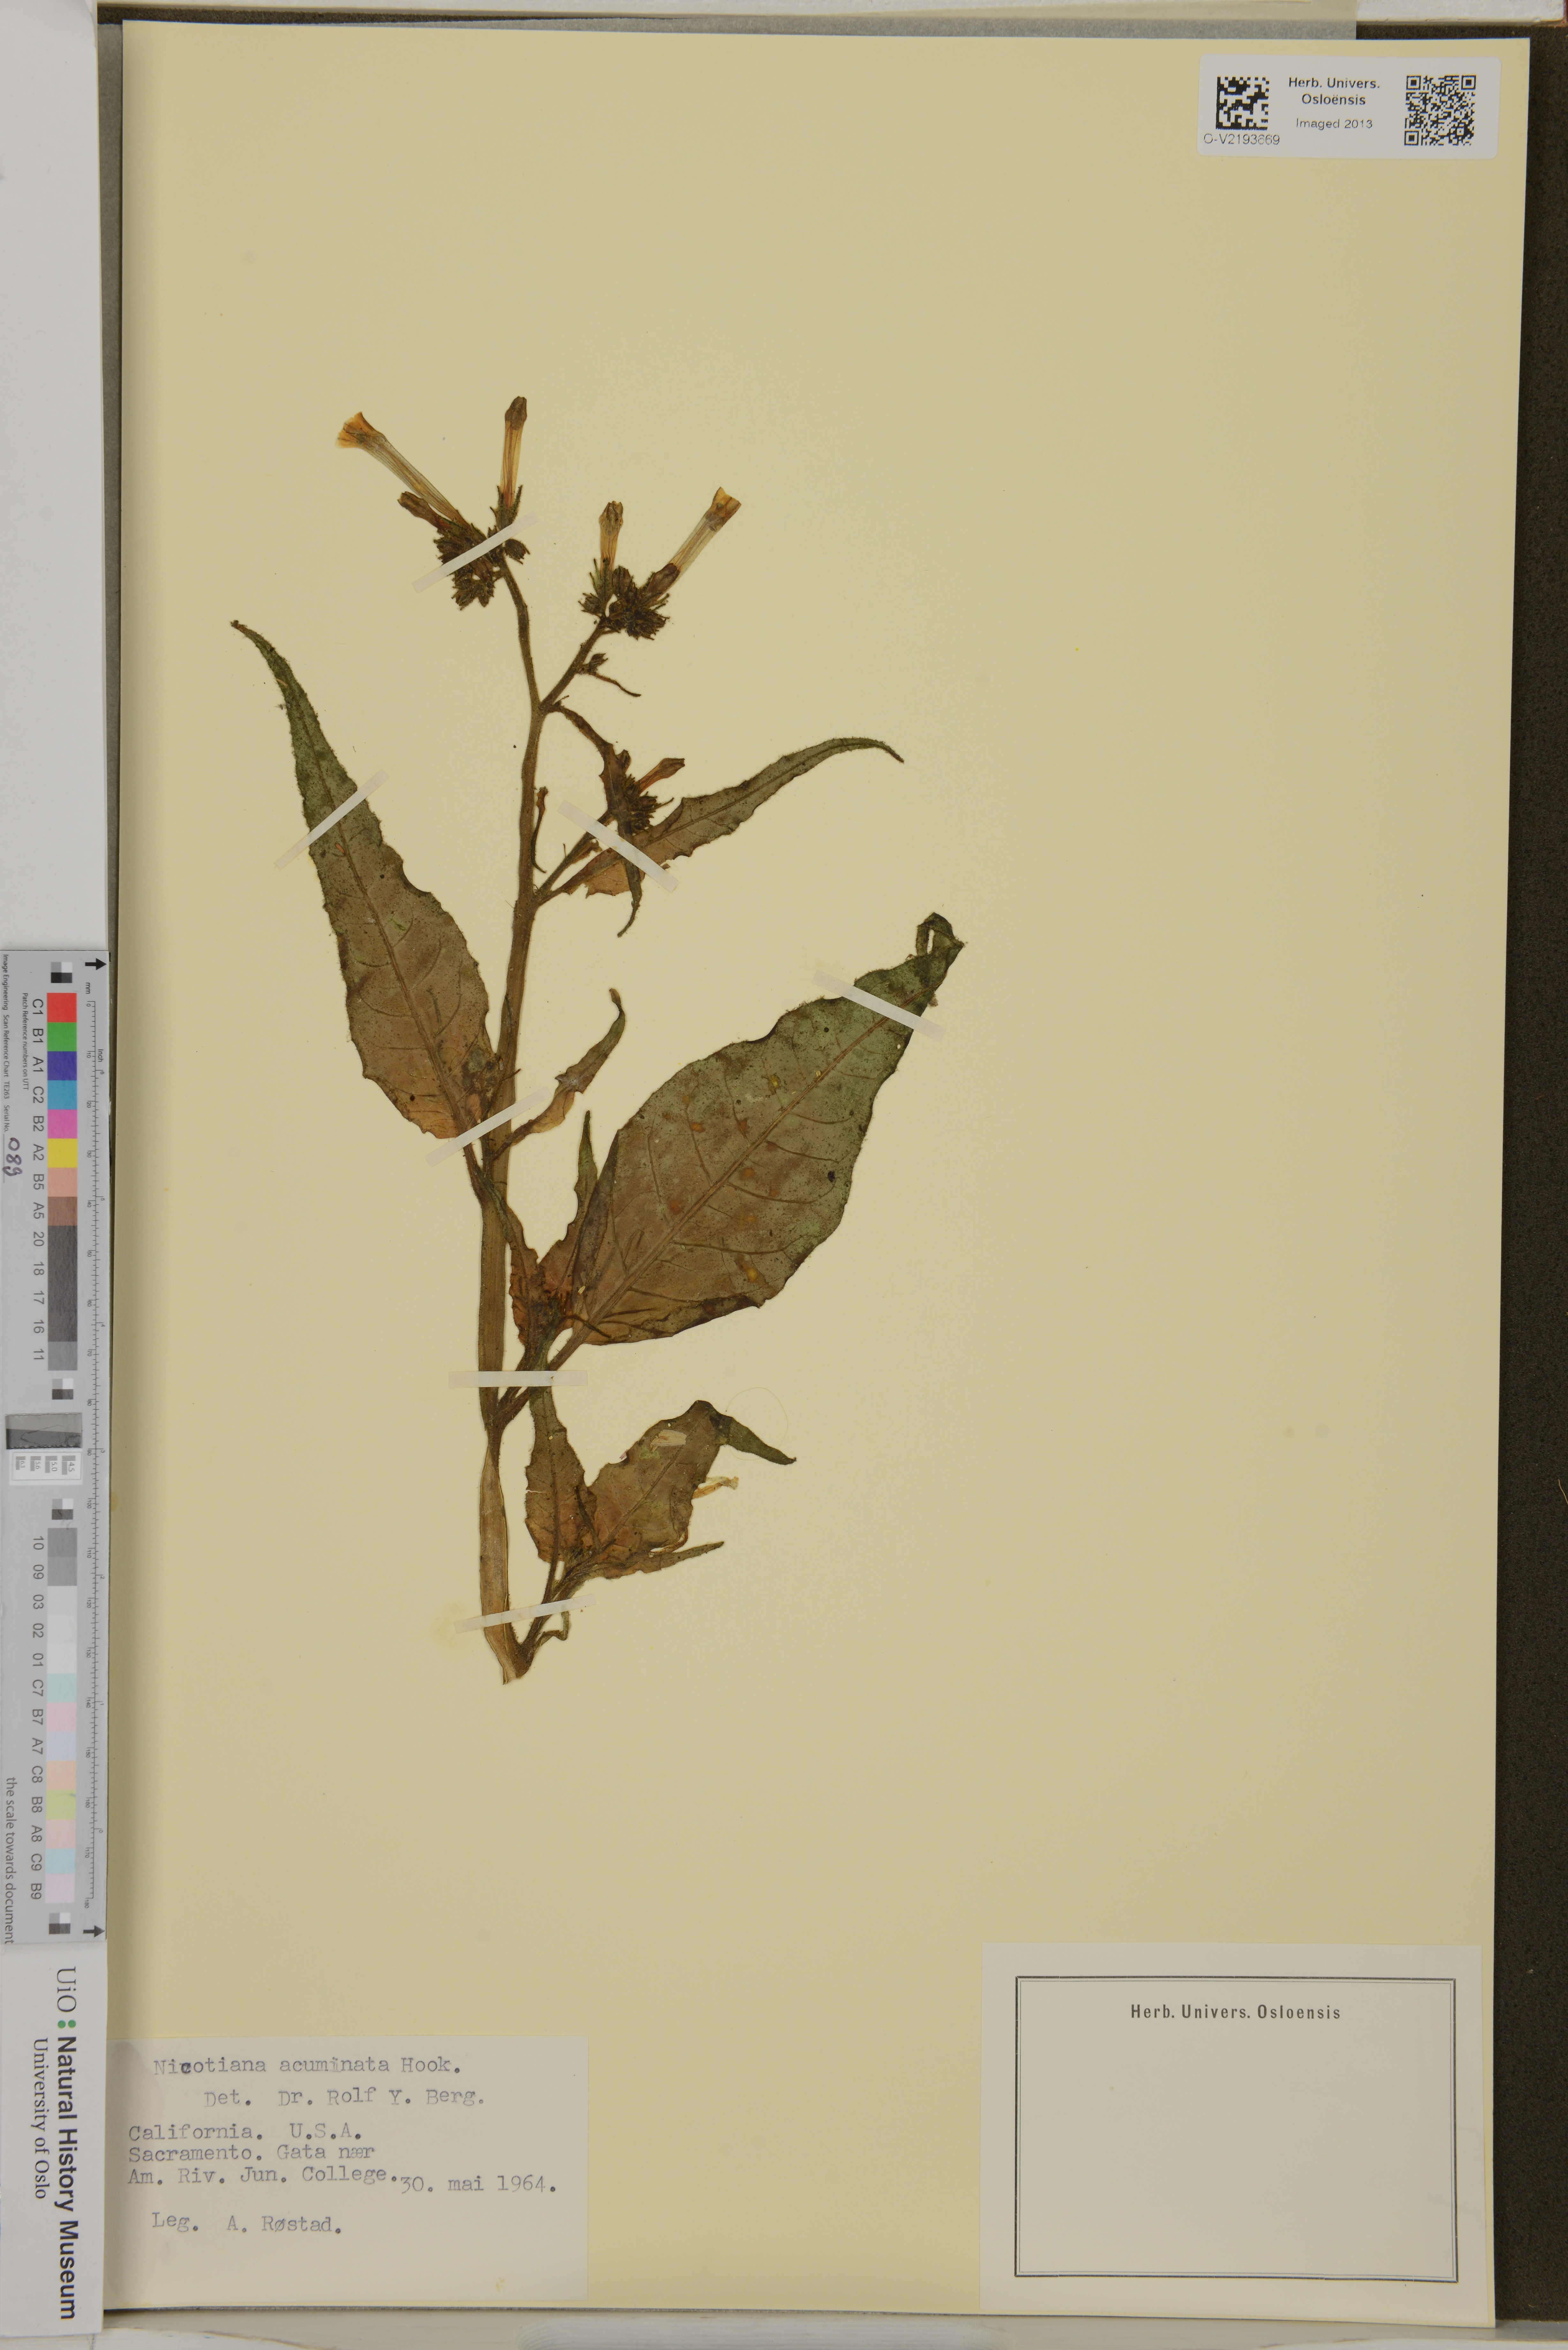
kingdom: Plantae
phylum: Tracheophyta
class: Magnoliopsida
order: Solanales
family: Solanaceae
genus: Nicotiana
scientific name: Nicotiana acuminata
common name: Manyflower tobacco
